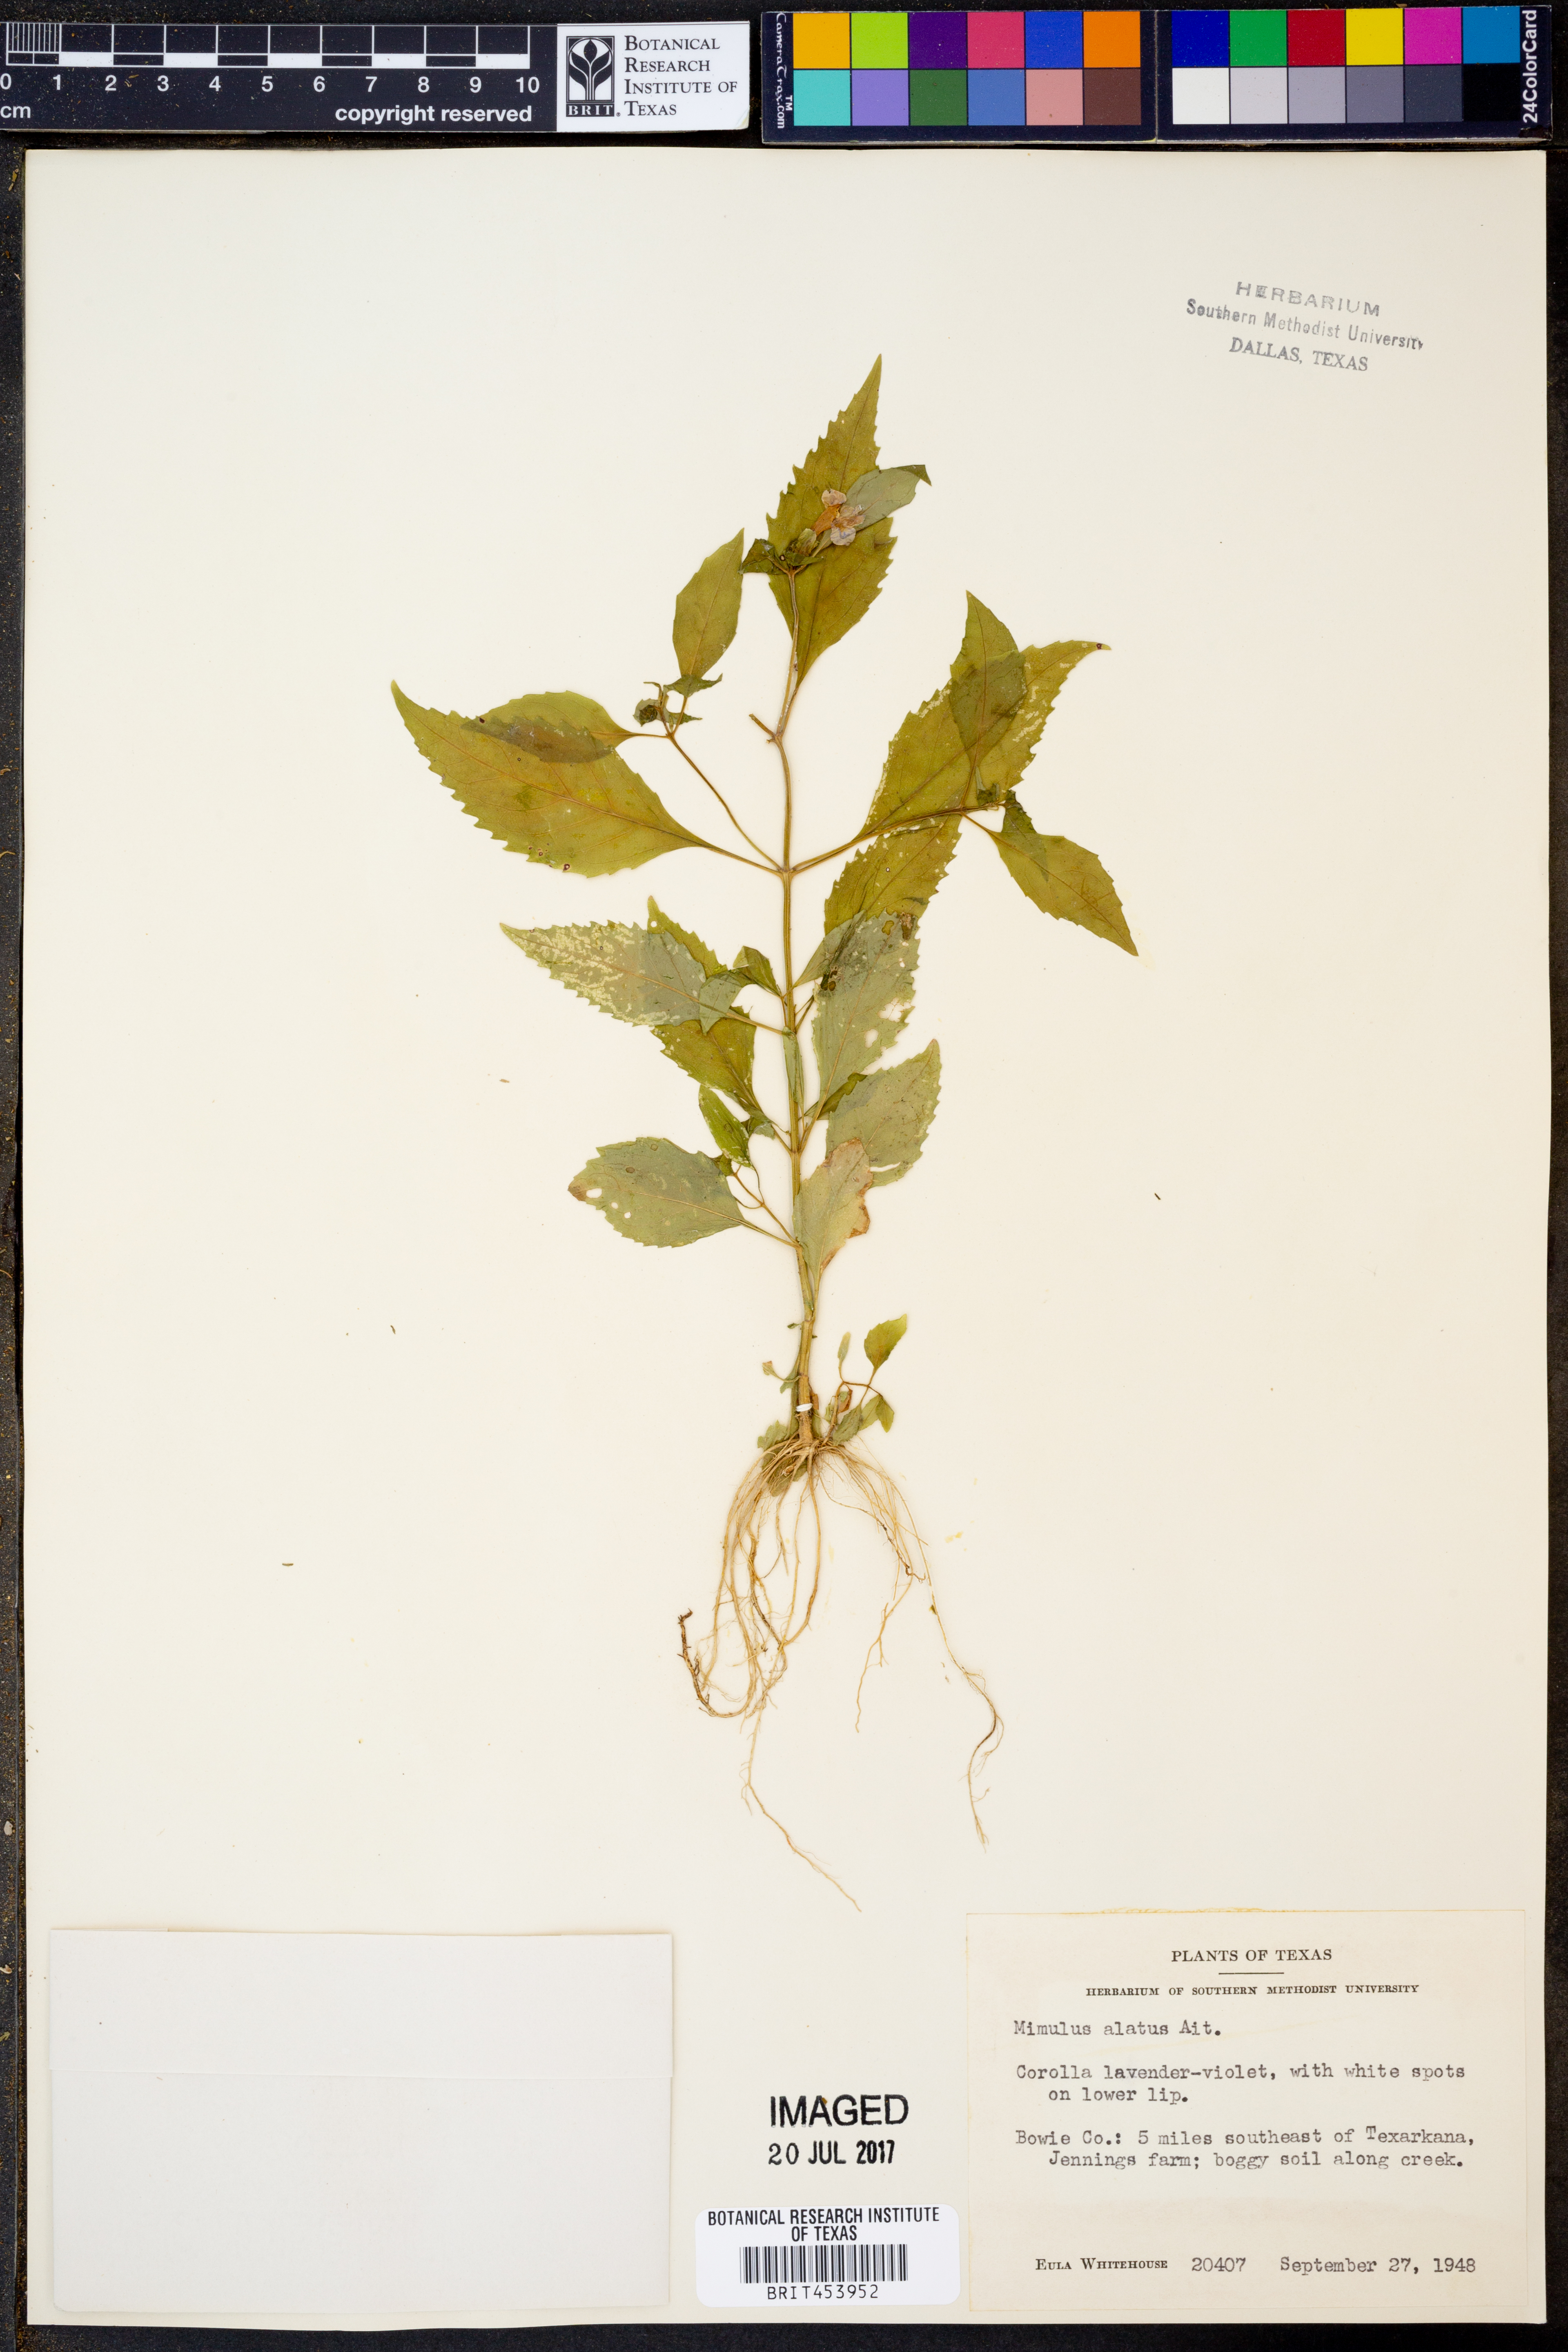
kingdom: Plantae
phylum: Tracheophyta
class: Magnoliopsida
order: Lamiales
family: Phrymaceae
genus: Mimulus
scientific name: Mimulus alatus
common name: Sharp-wing monkey-flower
